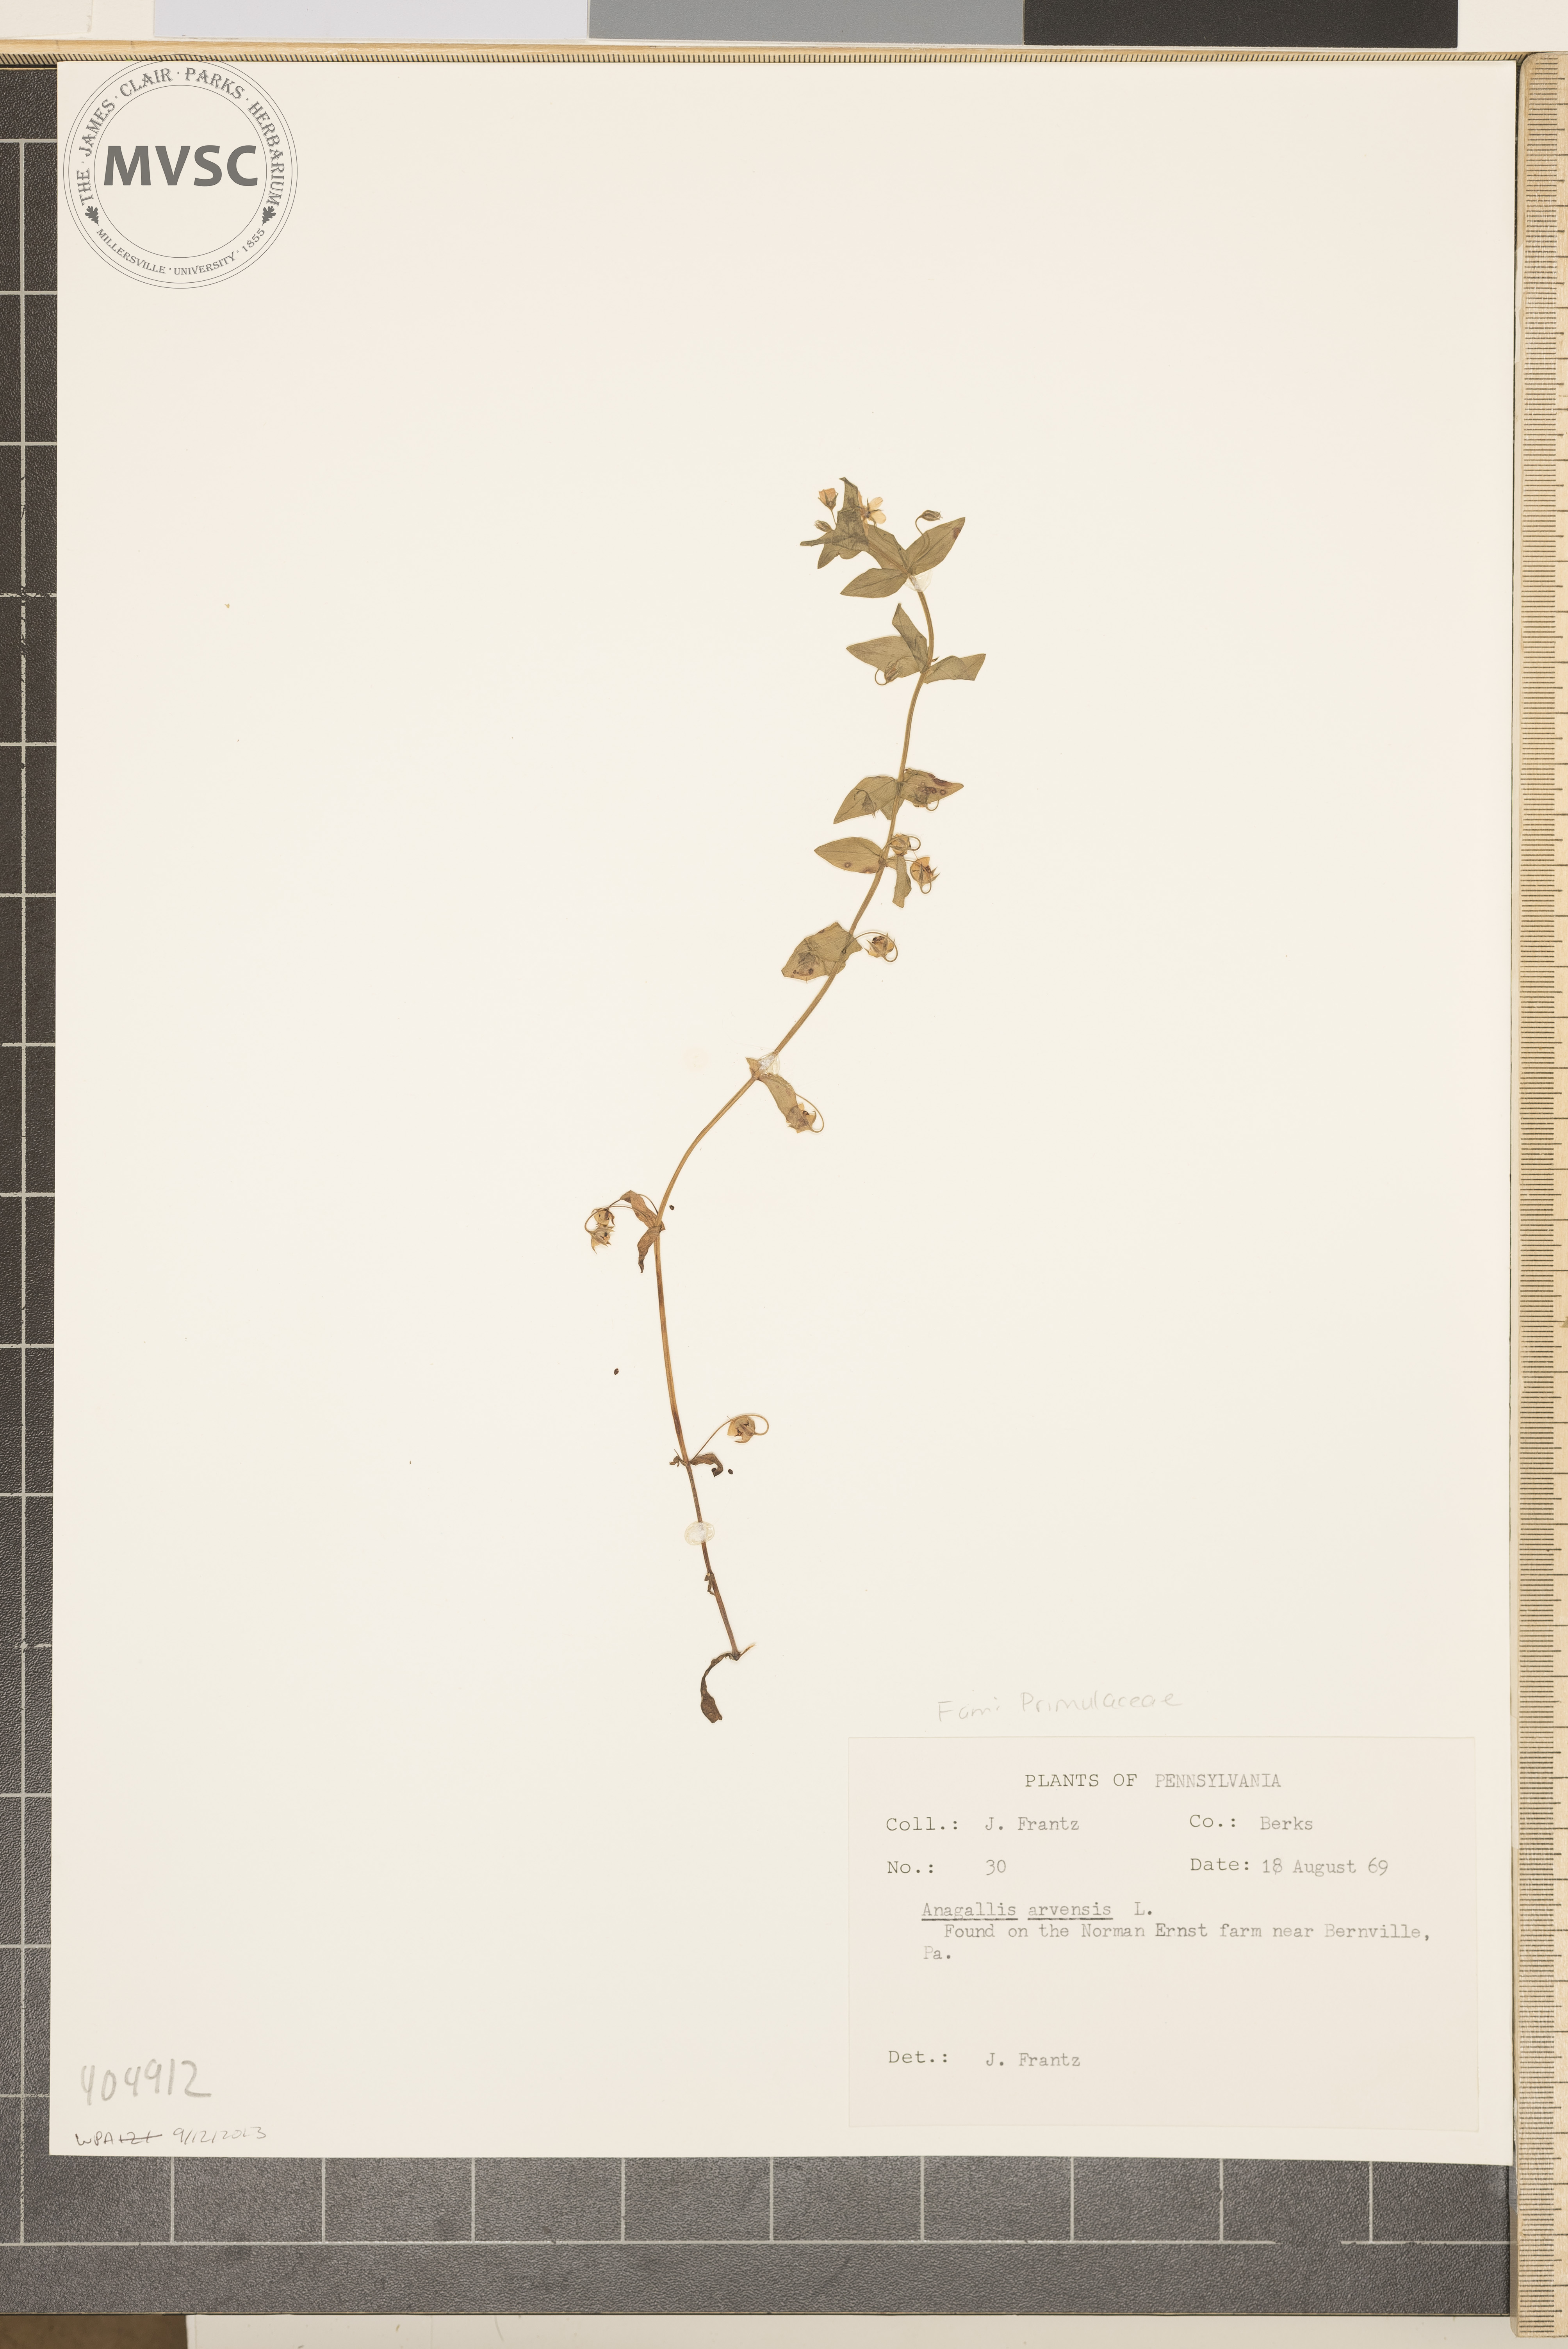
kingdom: Plantae
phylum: Tracheophyta
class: Magnoliopsida
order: Ericales
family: Primulaceae
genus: Lysimachia
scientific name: Lysimachia arvensis
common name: Scarlet pimpernel
